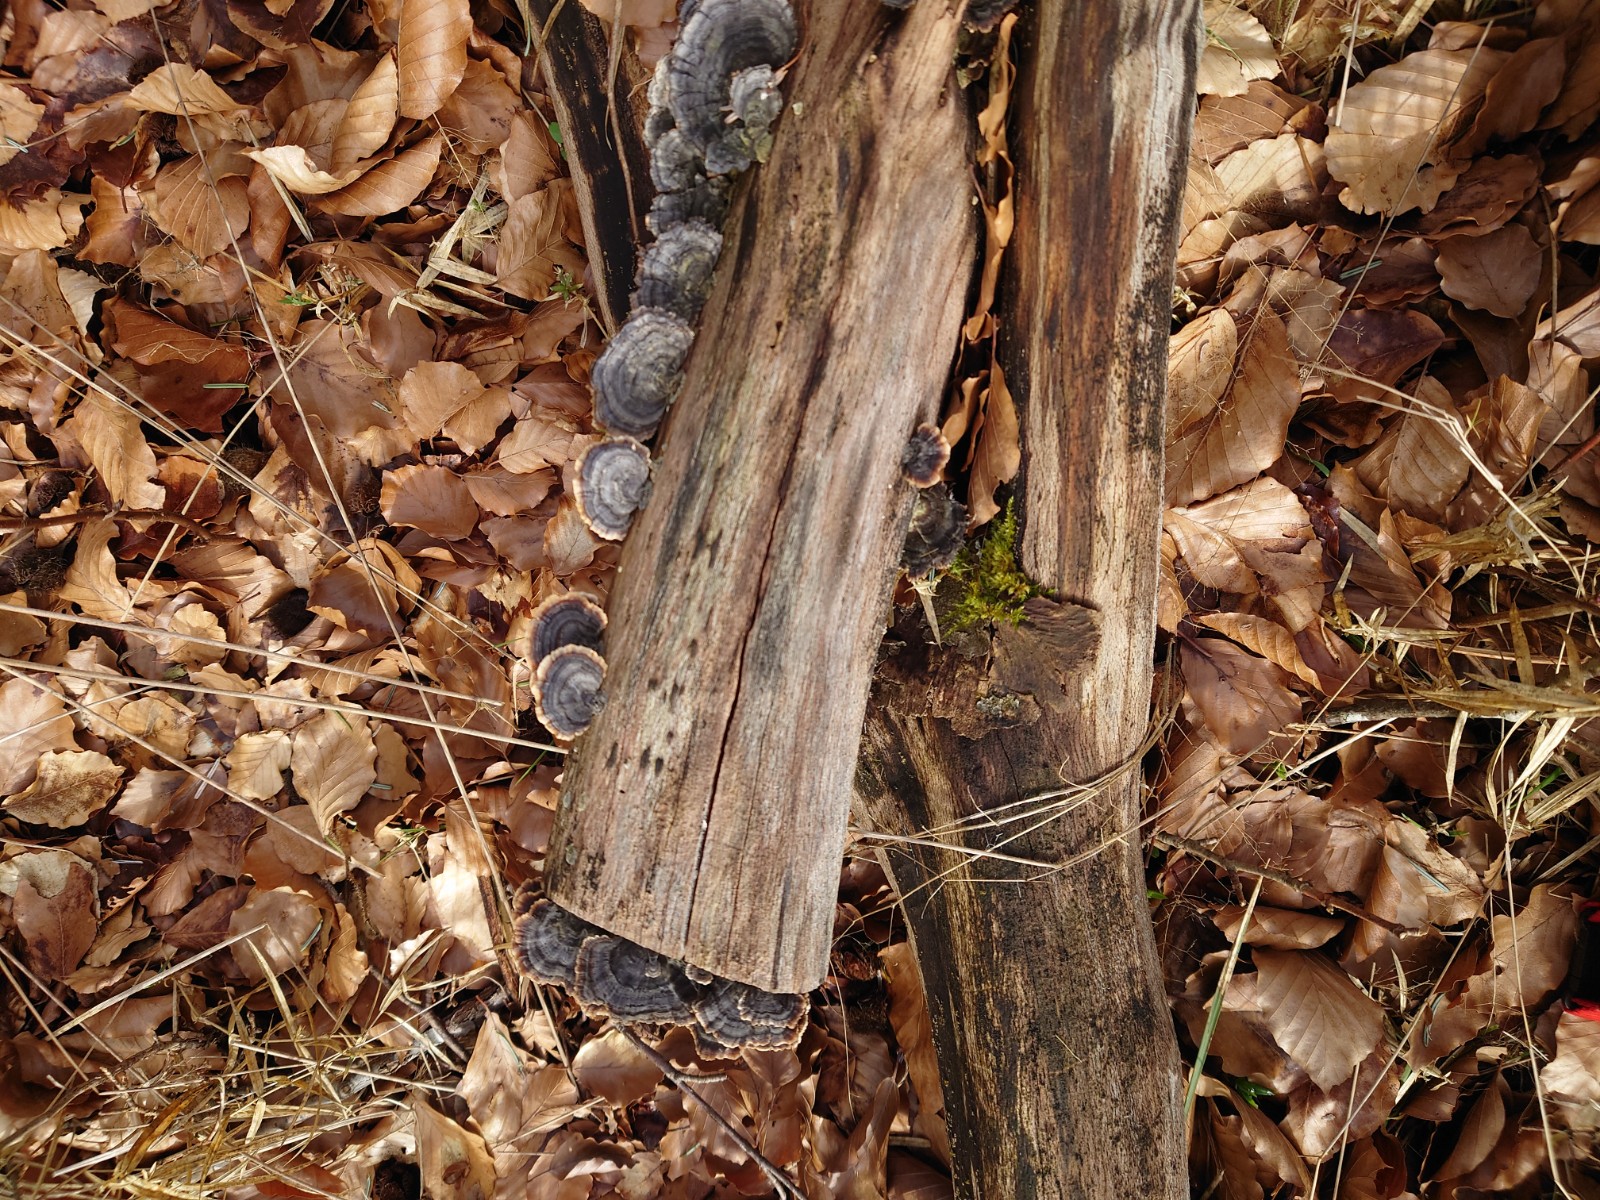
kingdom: Fungi
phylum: Basidiomycota
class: Agaricomycetes
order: Polyporales
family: Polyporaceae
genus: Trametes
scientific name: Trametes versicolor
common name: broget læderporesvamp
